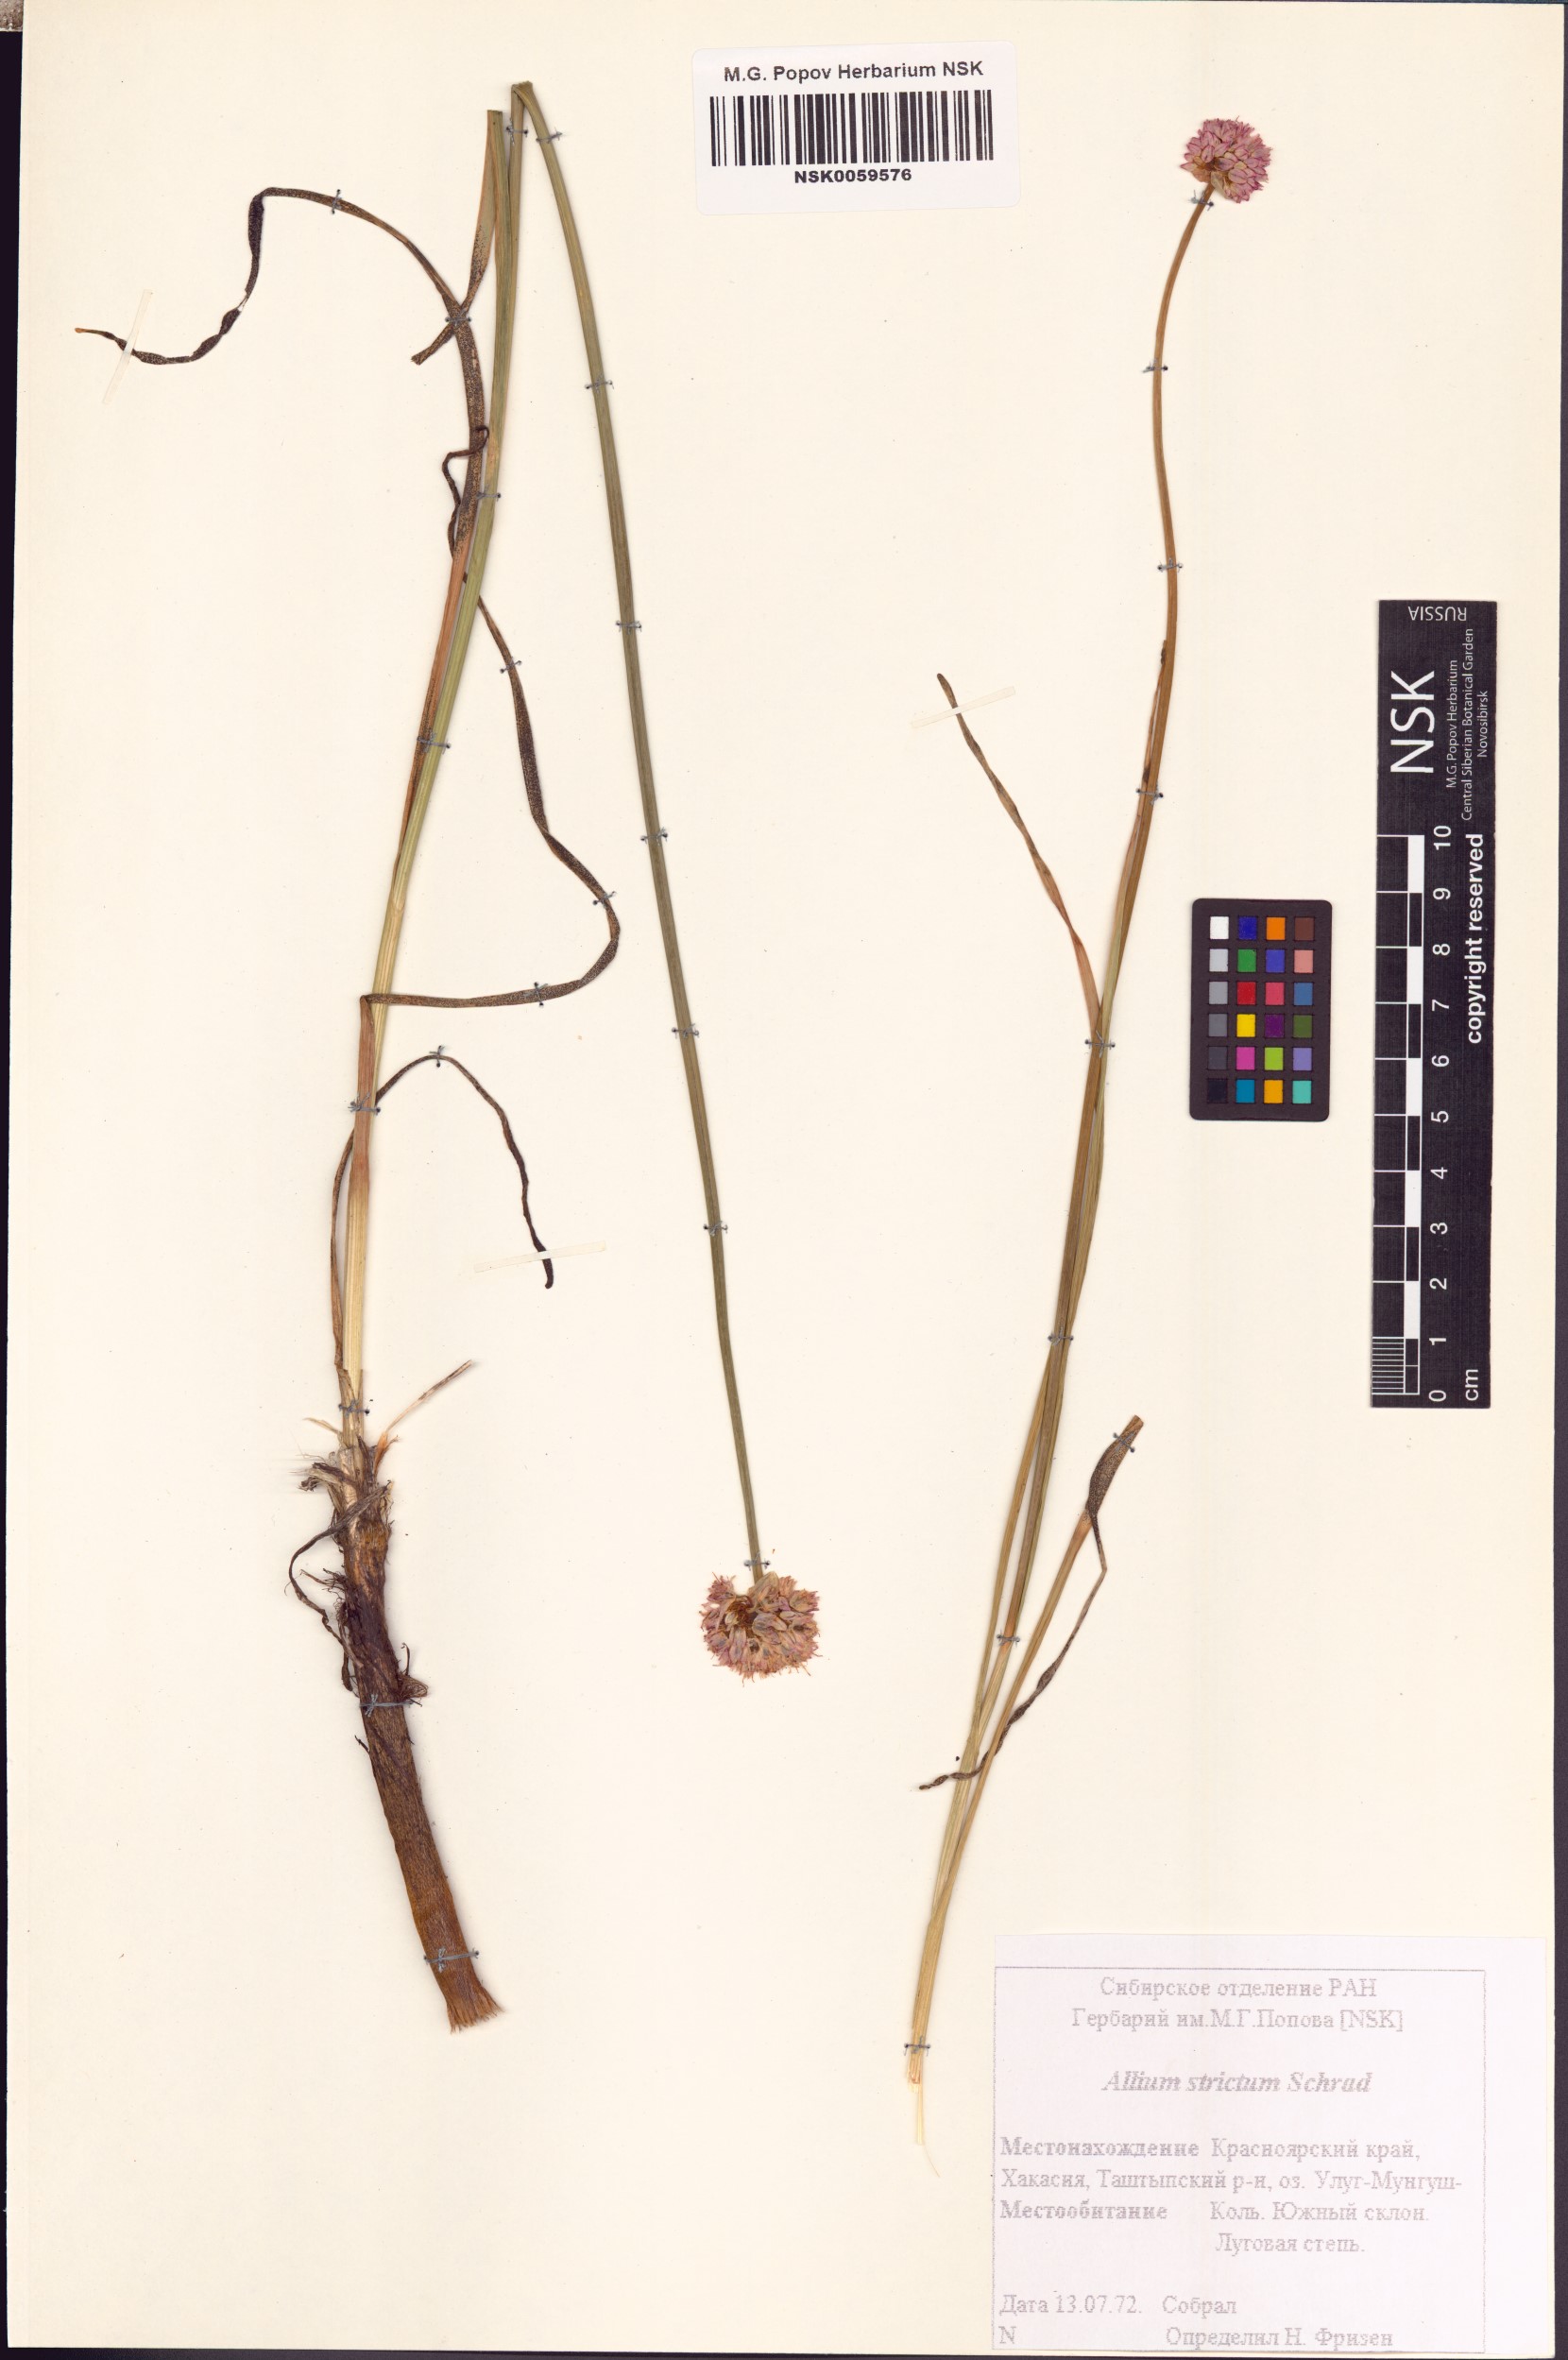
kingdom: Plantae
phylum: Tracheophyta
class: Liliopsida
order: Asparagales
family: Amaryllidaceae
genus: Allium
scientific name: Allium strictum
